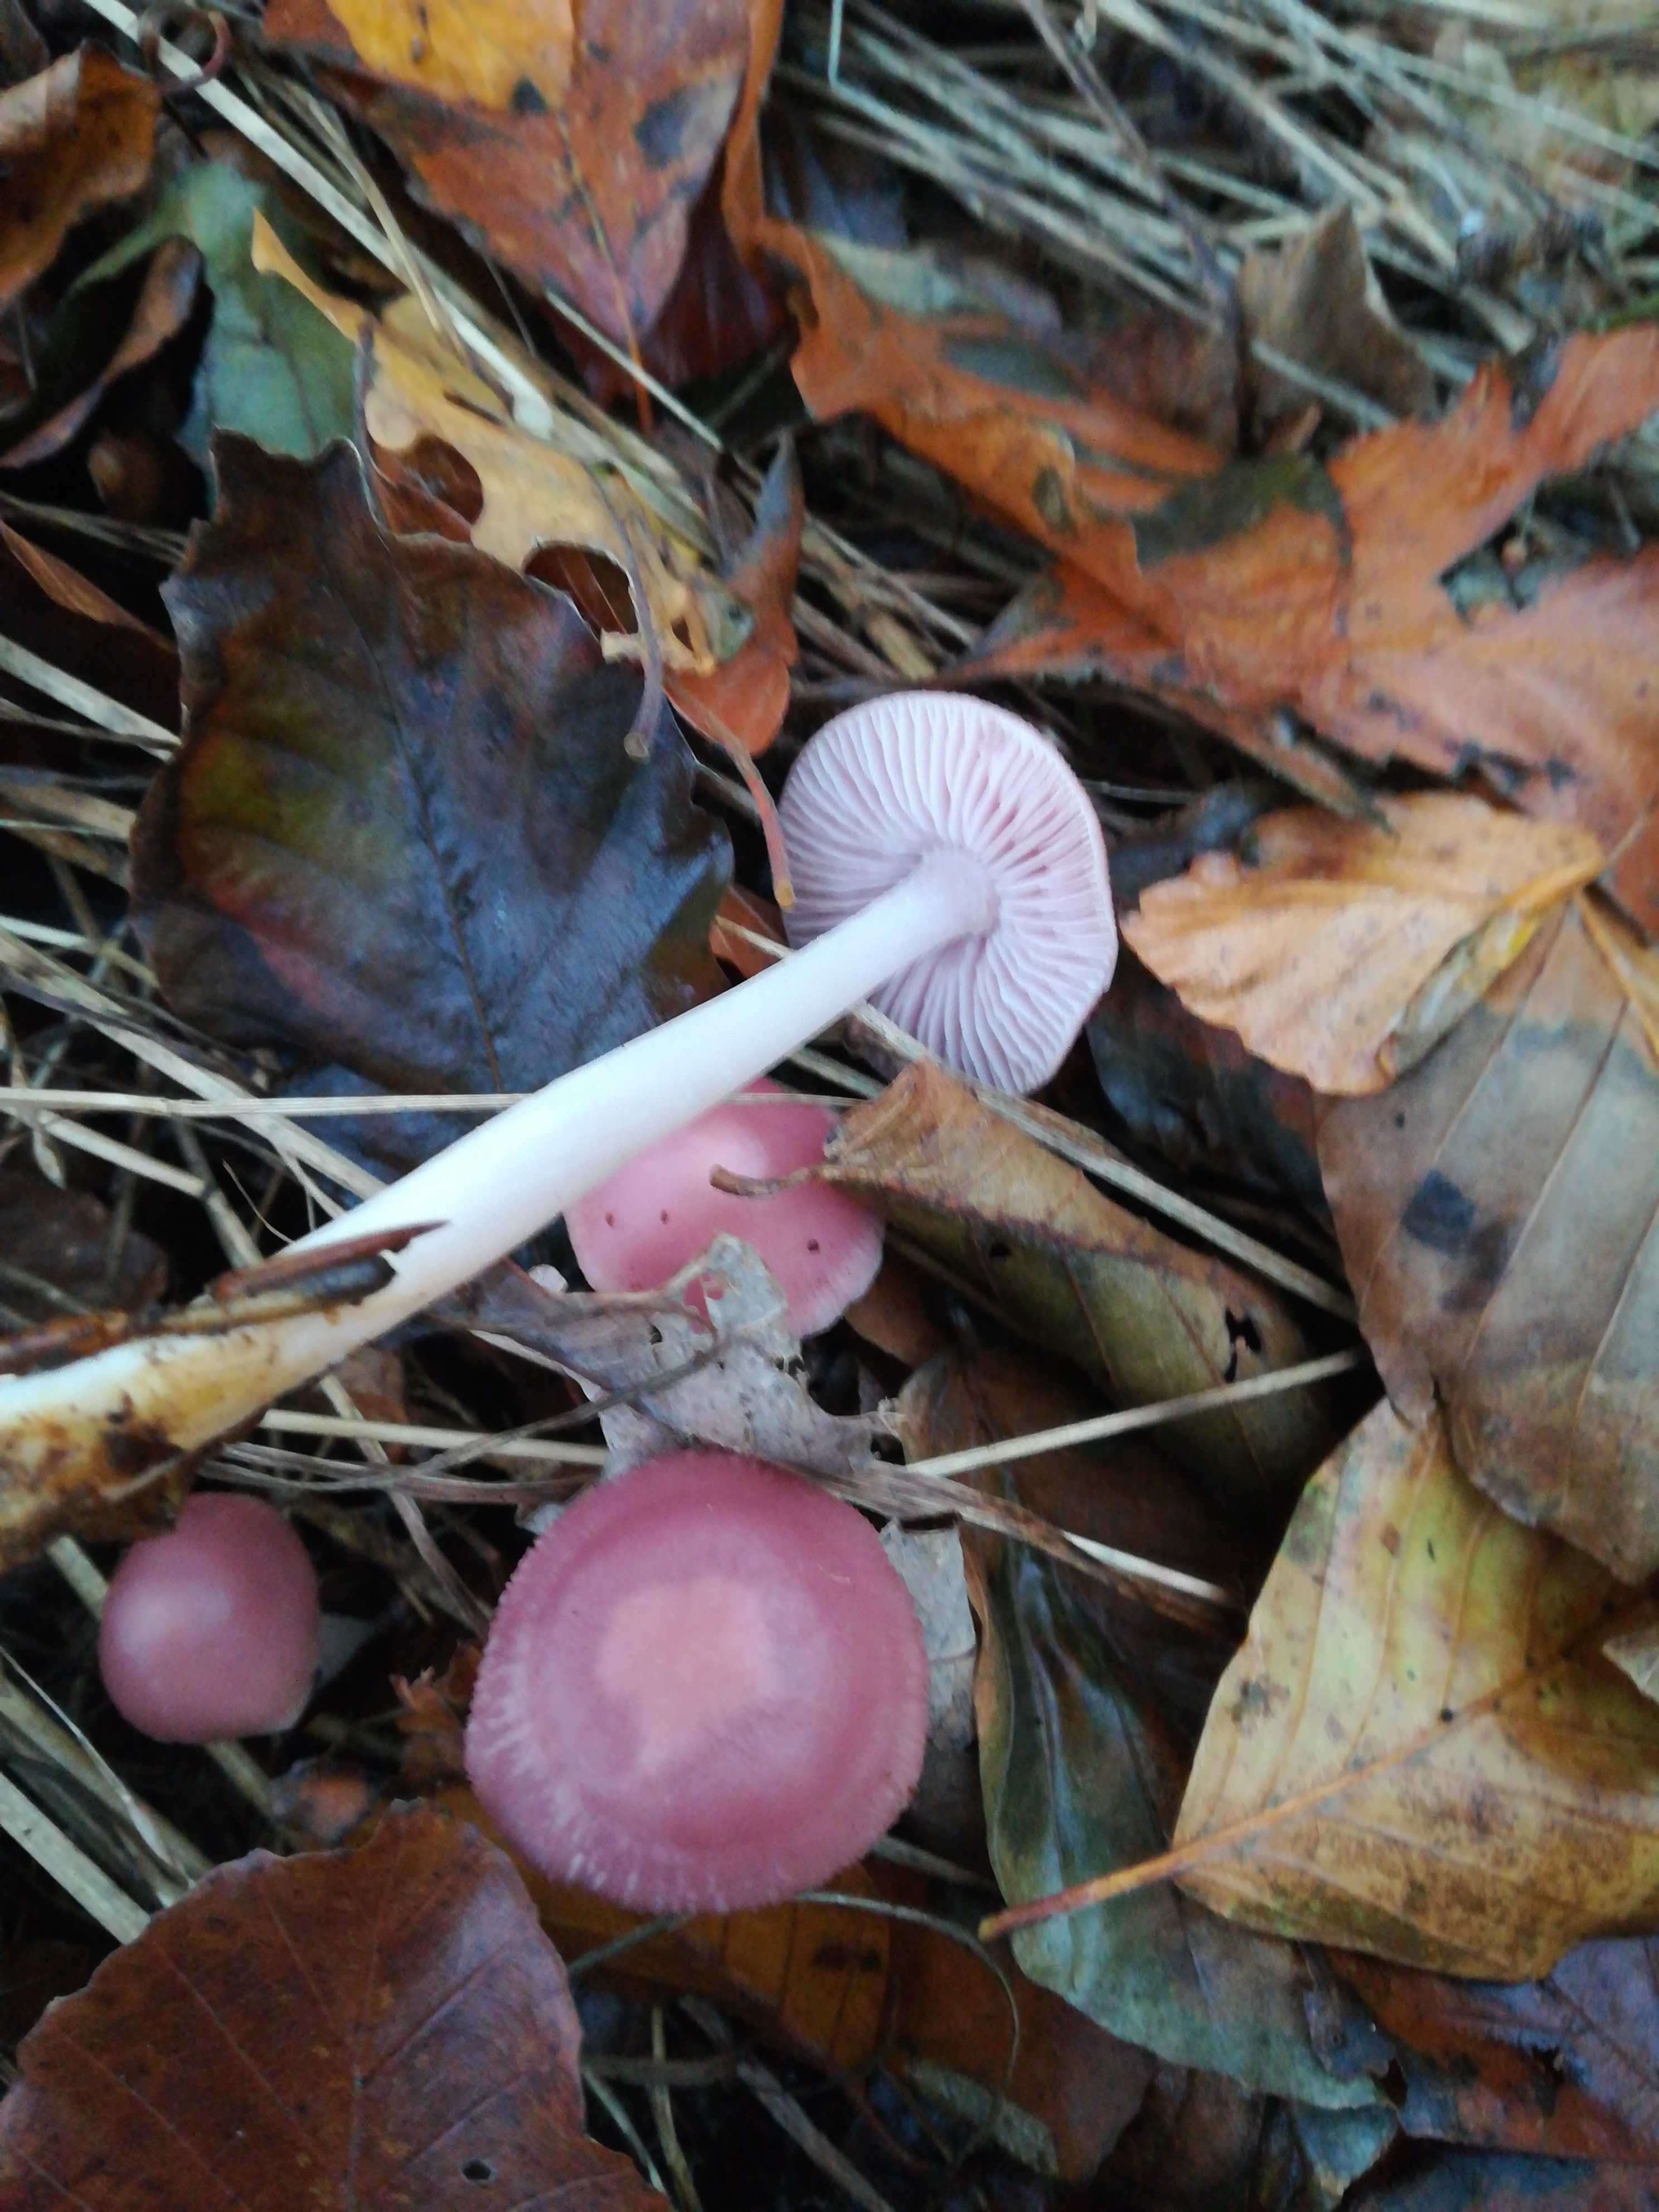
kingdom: Fungi
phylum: Basidiomycota
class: Agaricomycetes
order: Agaricales
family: Mycenaceae
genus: Mycena
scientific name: Mycena rosea
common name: rosa huesvamp
